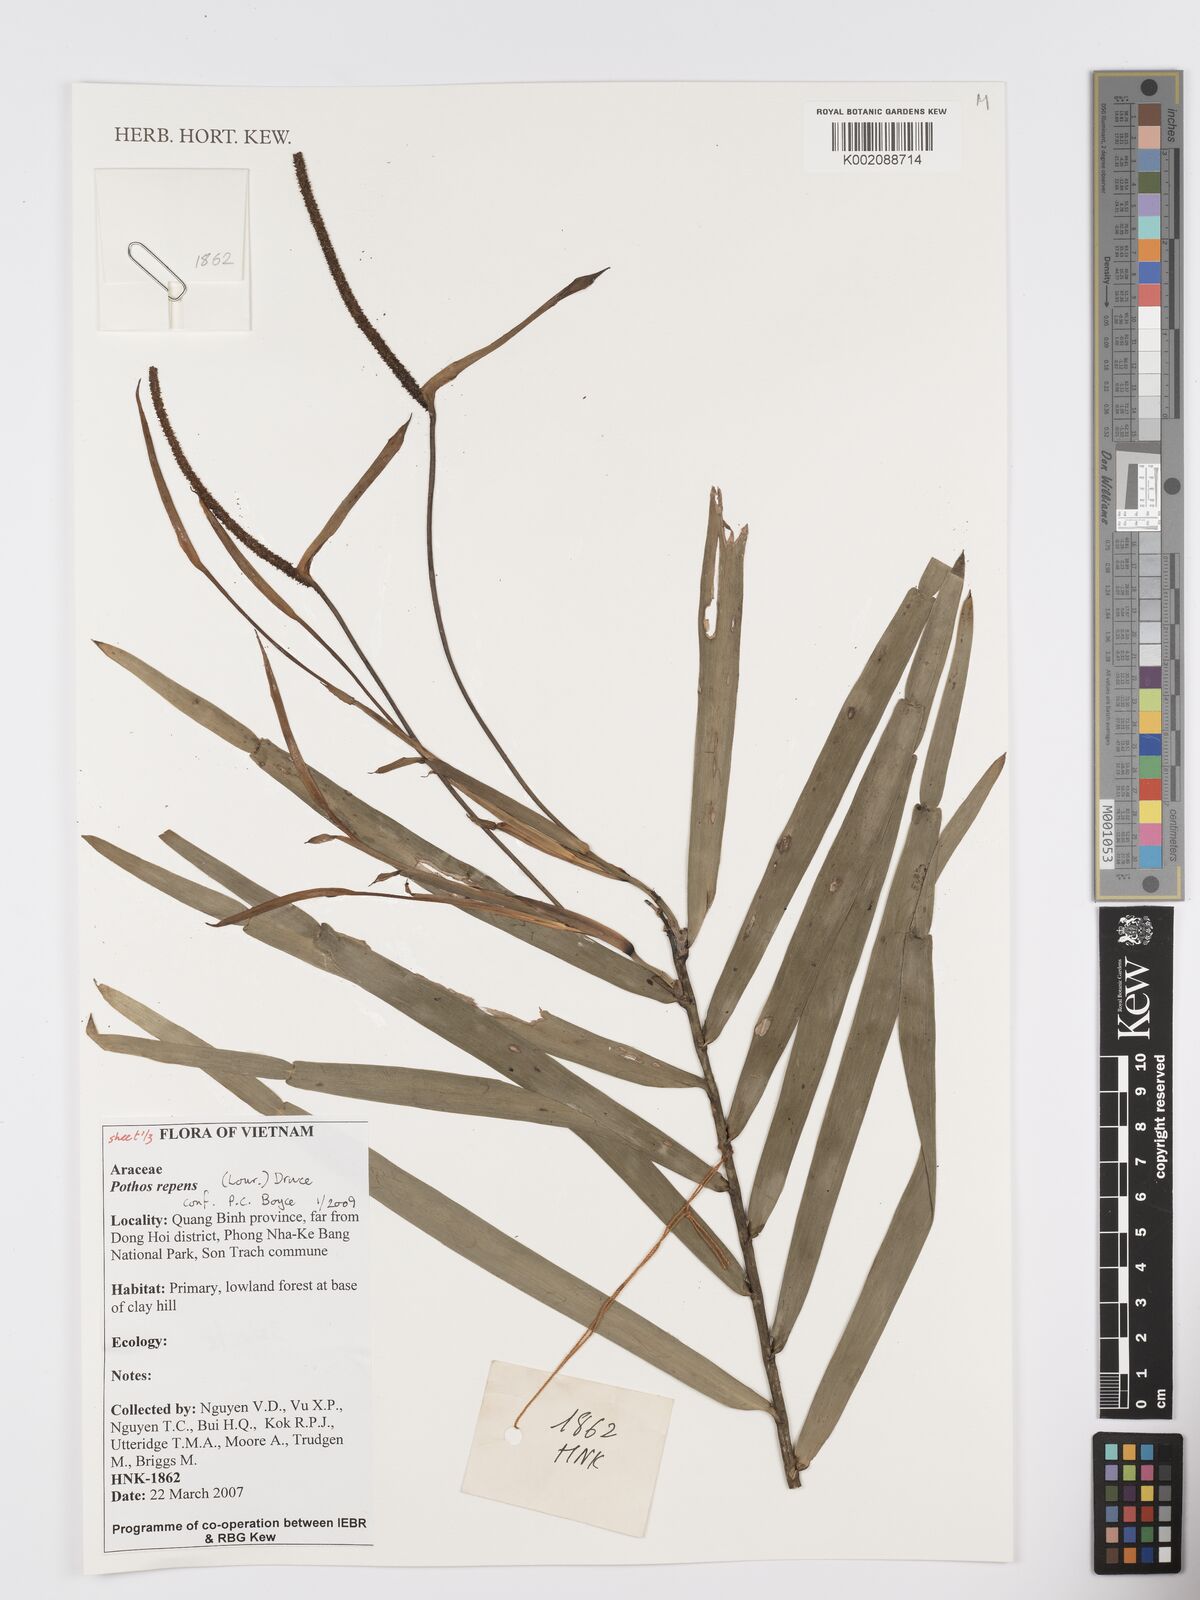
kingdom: Plantae
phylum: Tracheophyta
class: Liliopsida
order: Alismatales
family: Araceae
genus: Pothos
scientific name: Pothos repens
